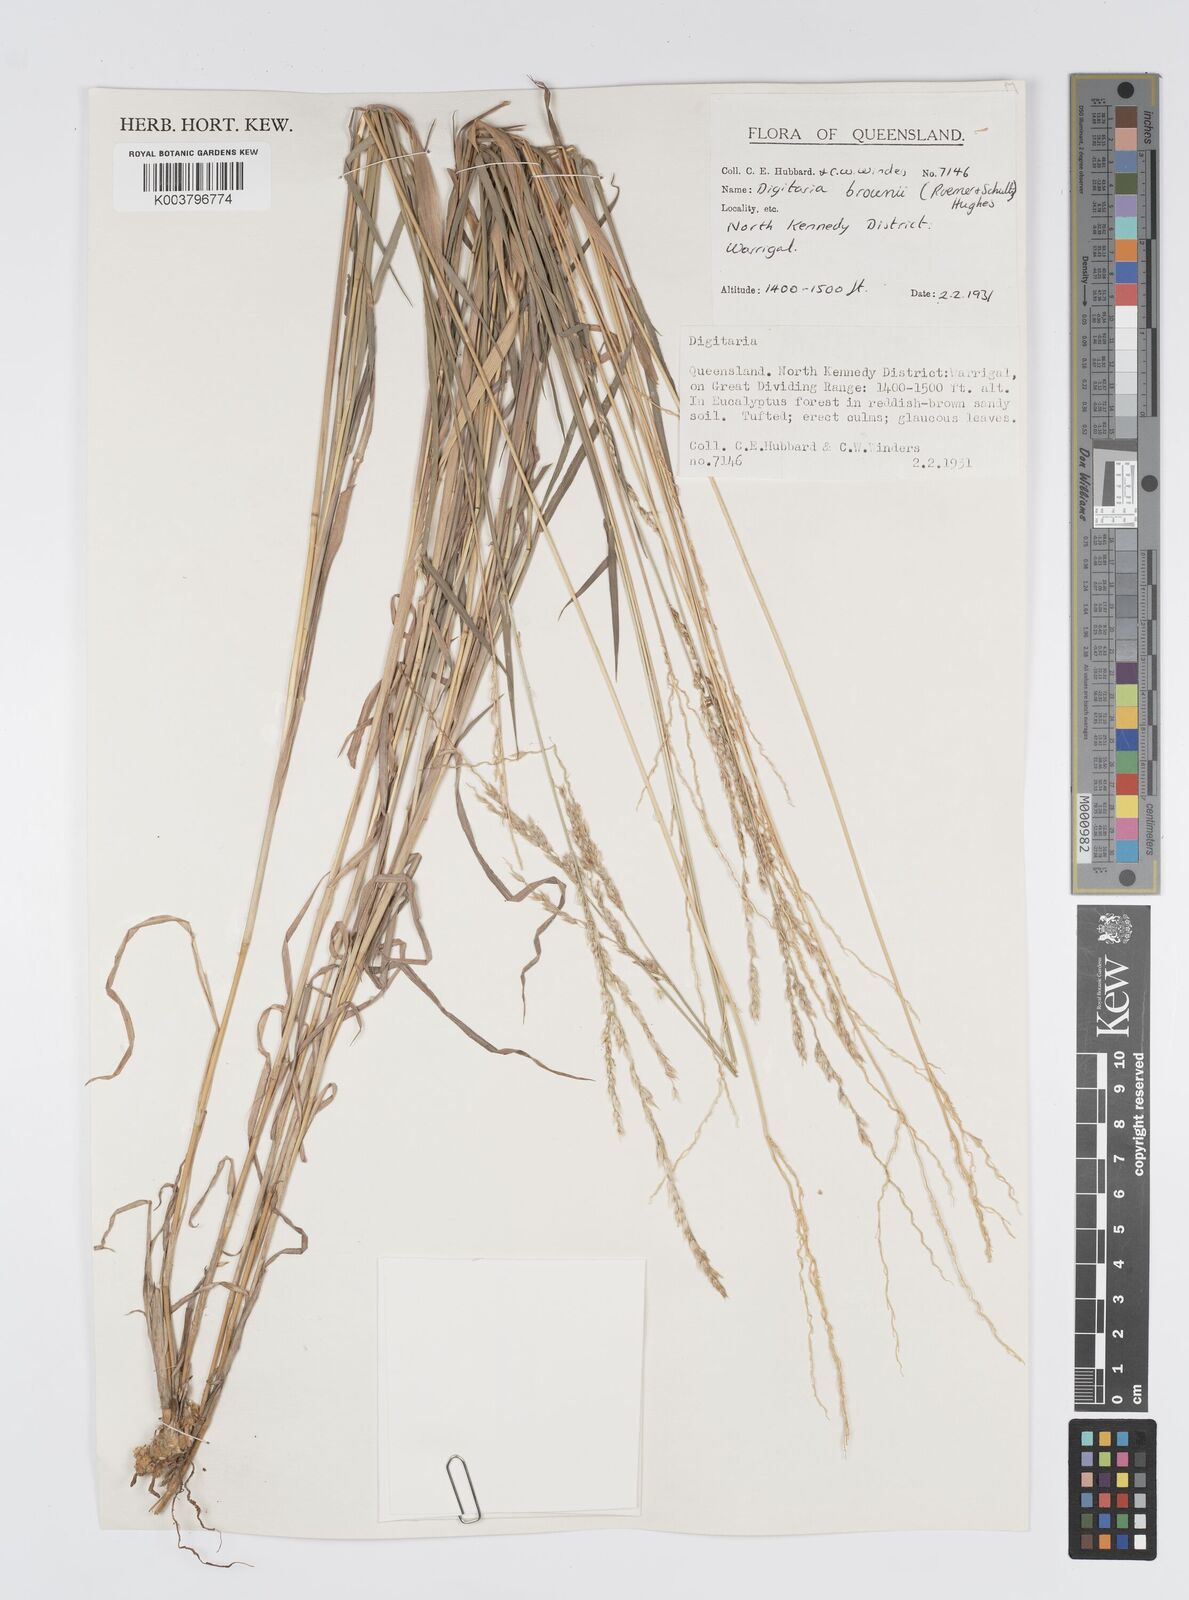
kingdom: Plantae
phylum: Tracheophyta
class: Liliopsida
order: Poales
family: Poaceae
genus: Digitaria
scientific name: Digitaria brownii
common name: Cotton grass
